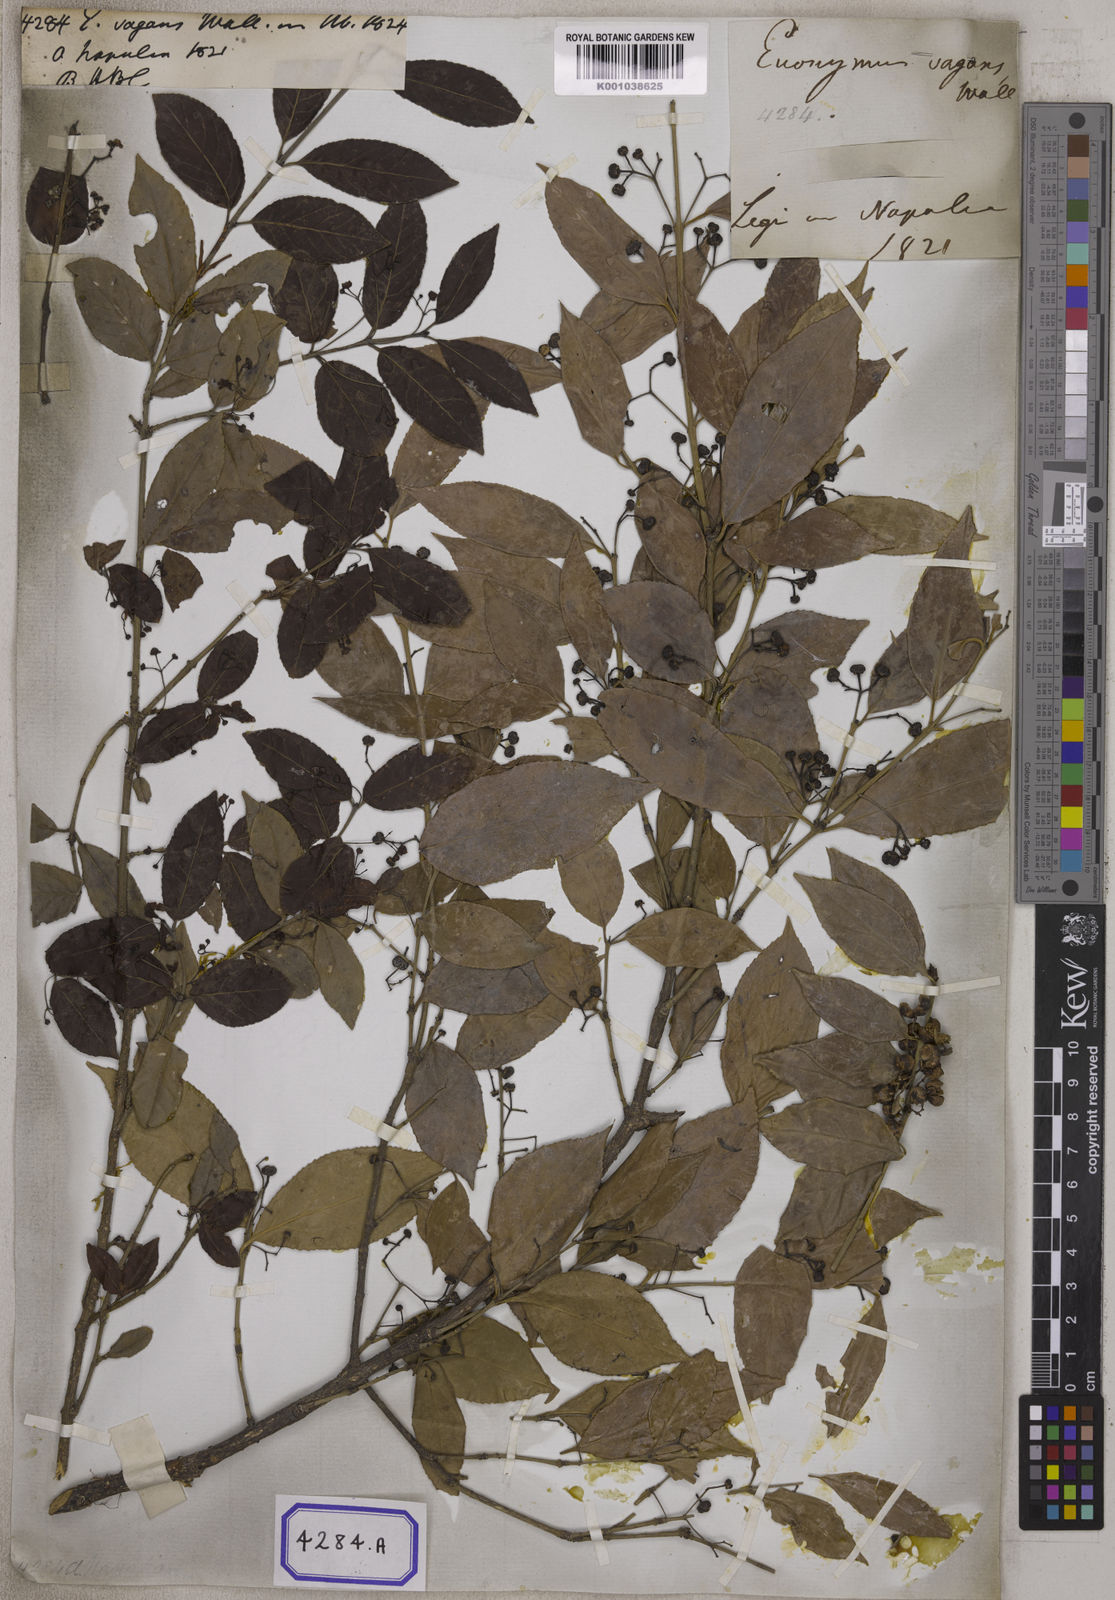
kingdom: Plantae
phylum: Tracheophyta
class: Magnoliopsida
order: Celastrales
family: Celastraceae
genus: Euonymus
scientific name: Euonymus vagans
